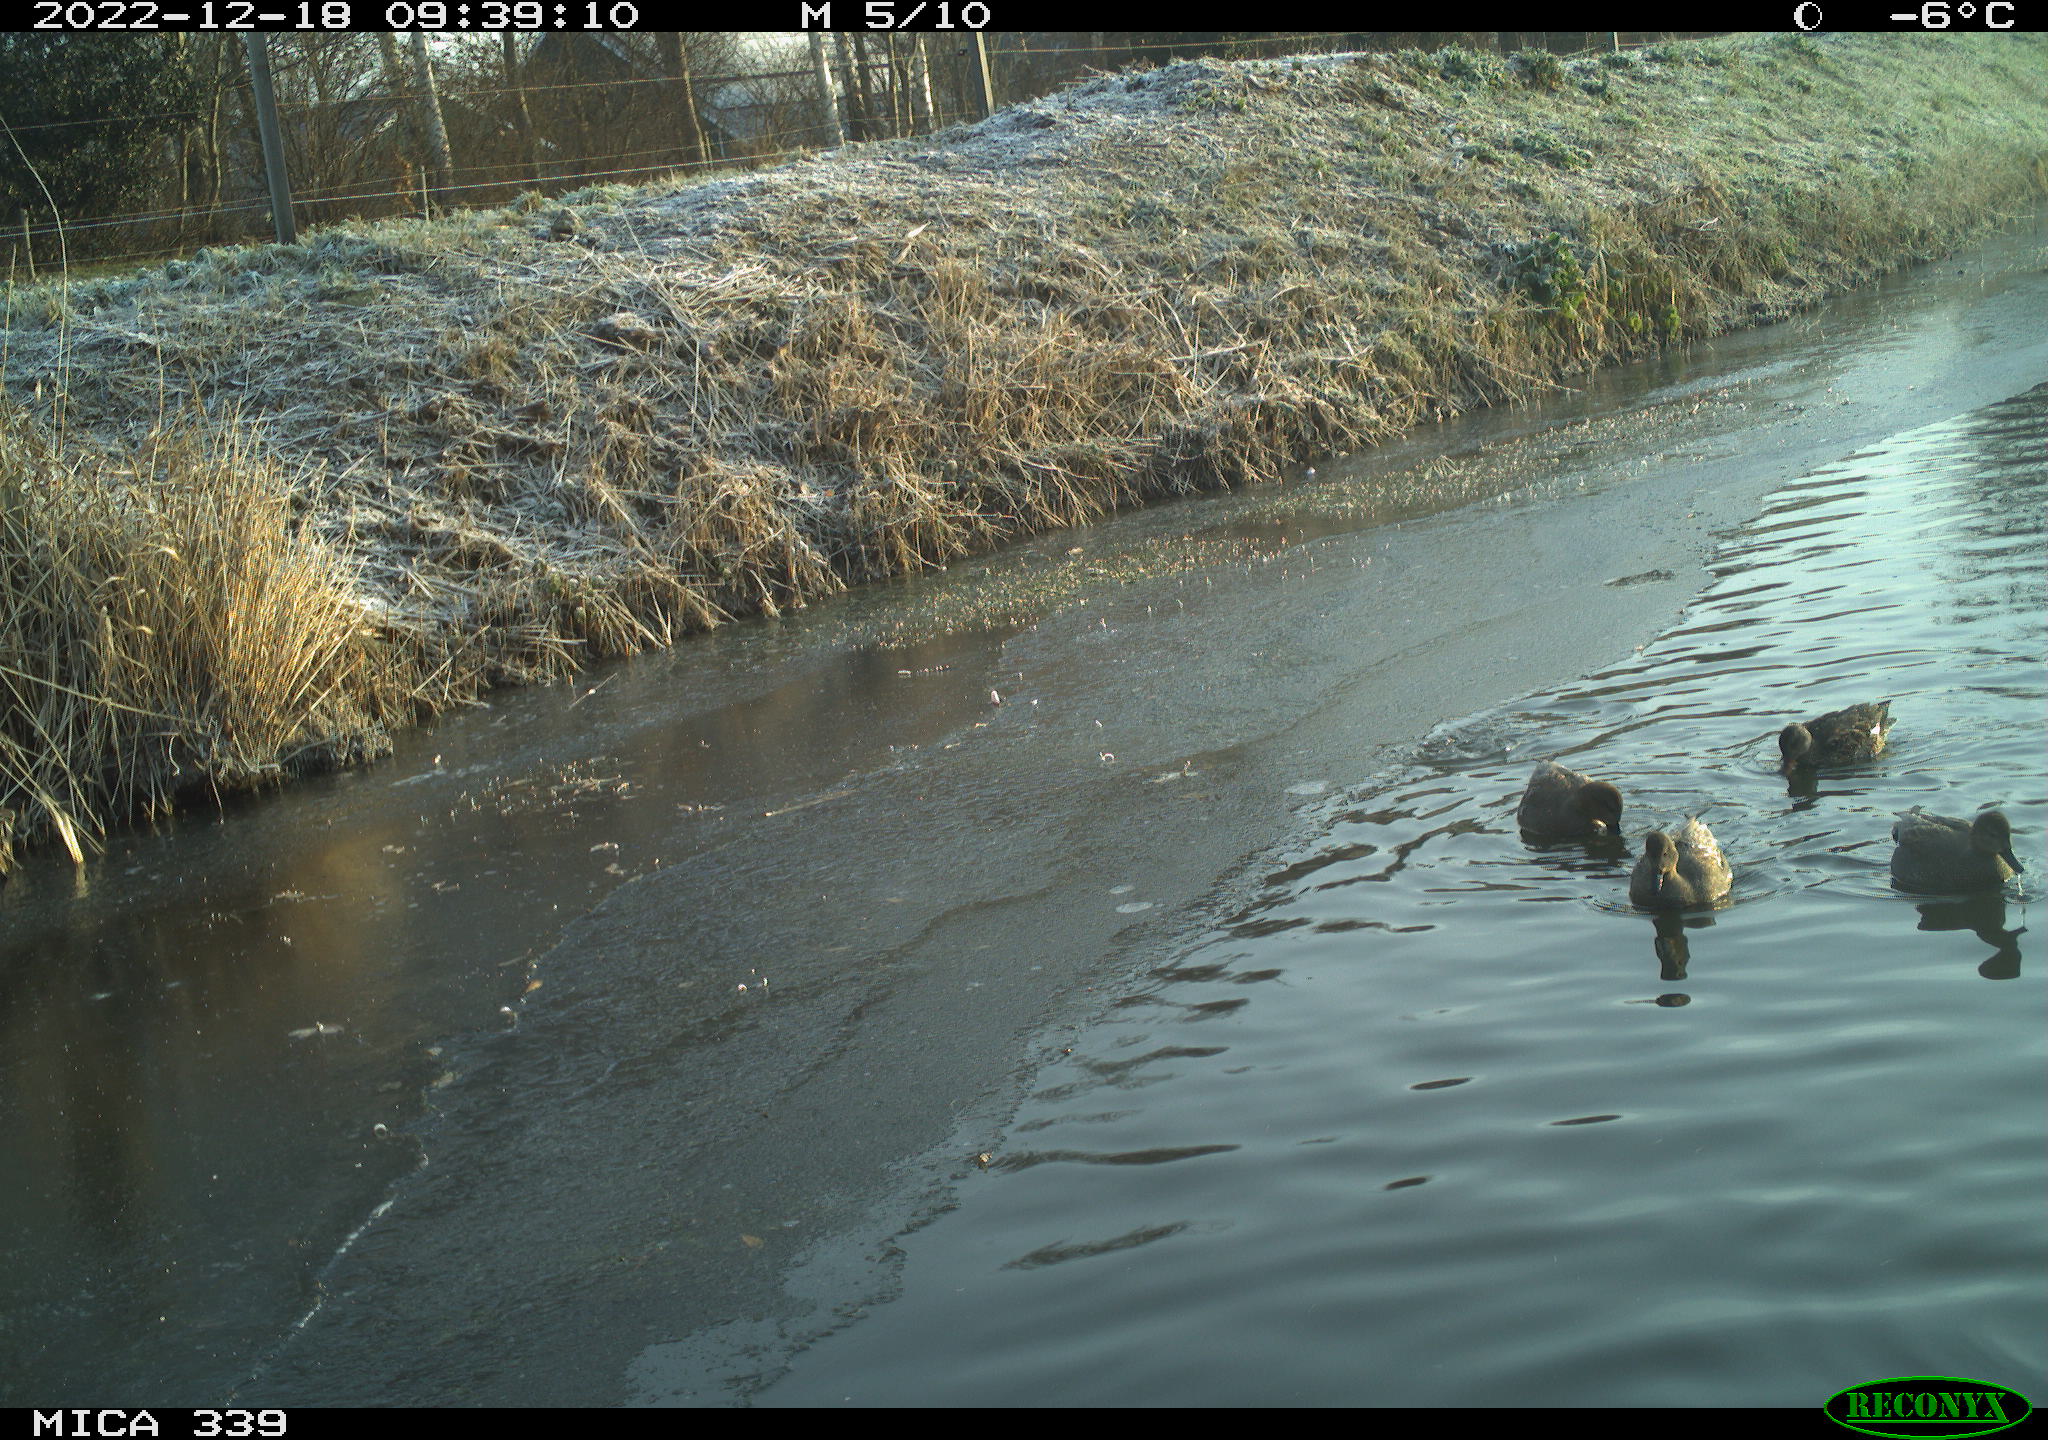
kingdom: Animalia
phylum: Chordata
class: Aves
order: Anseriformes
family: Anatidae
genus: Anas
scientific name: Anas
